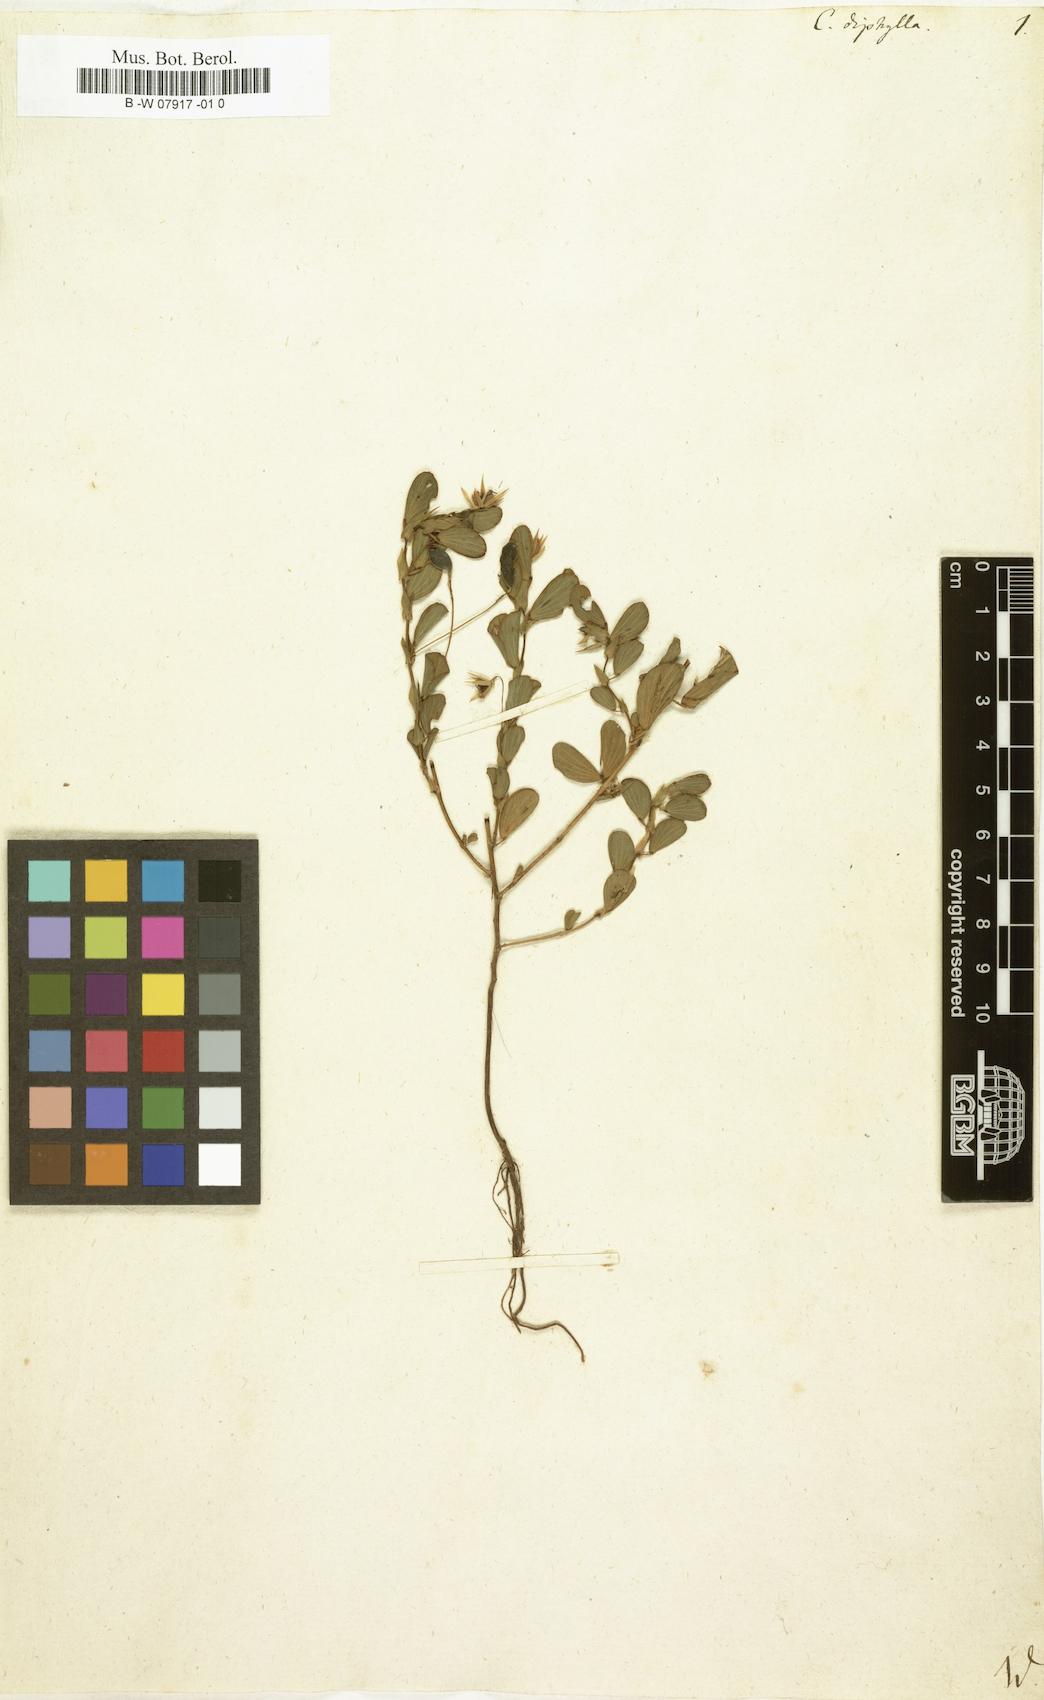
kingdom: Plantae
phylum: Tracheophyta
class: Magnoliopsida
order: Fabales
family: Fabaceae
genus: Chamaecrista
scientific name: Chamaecrista diphylla
